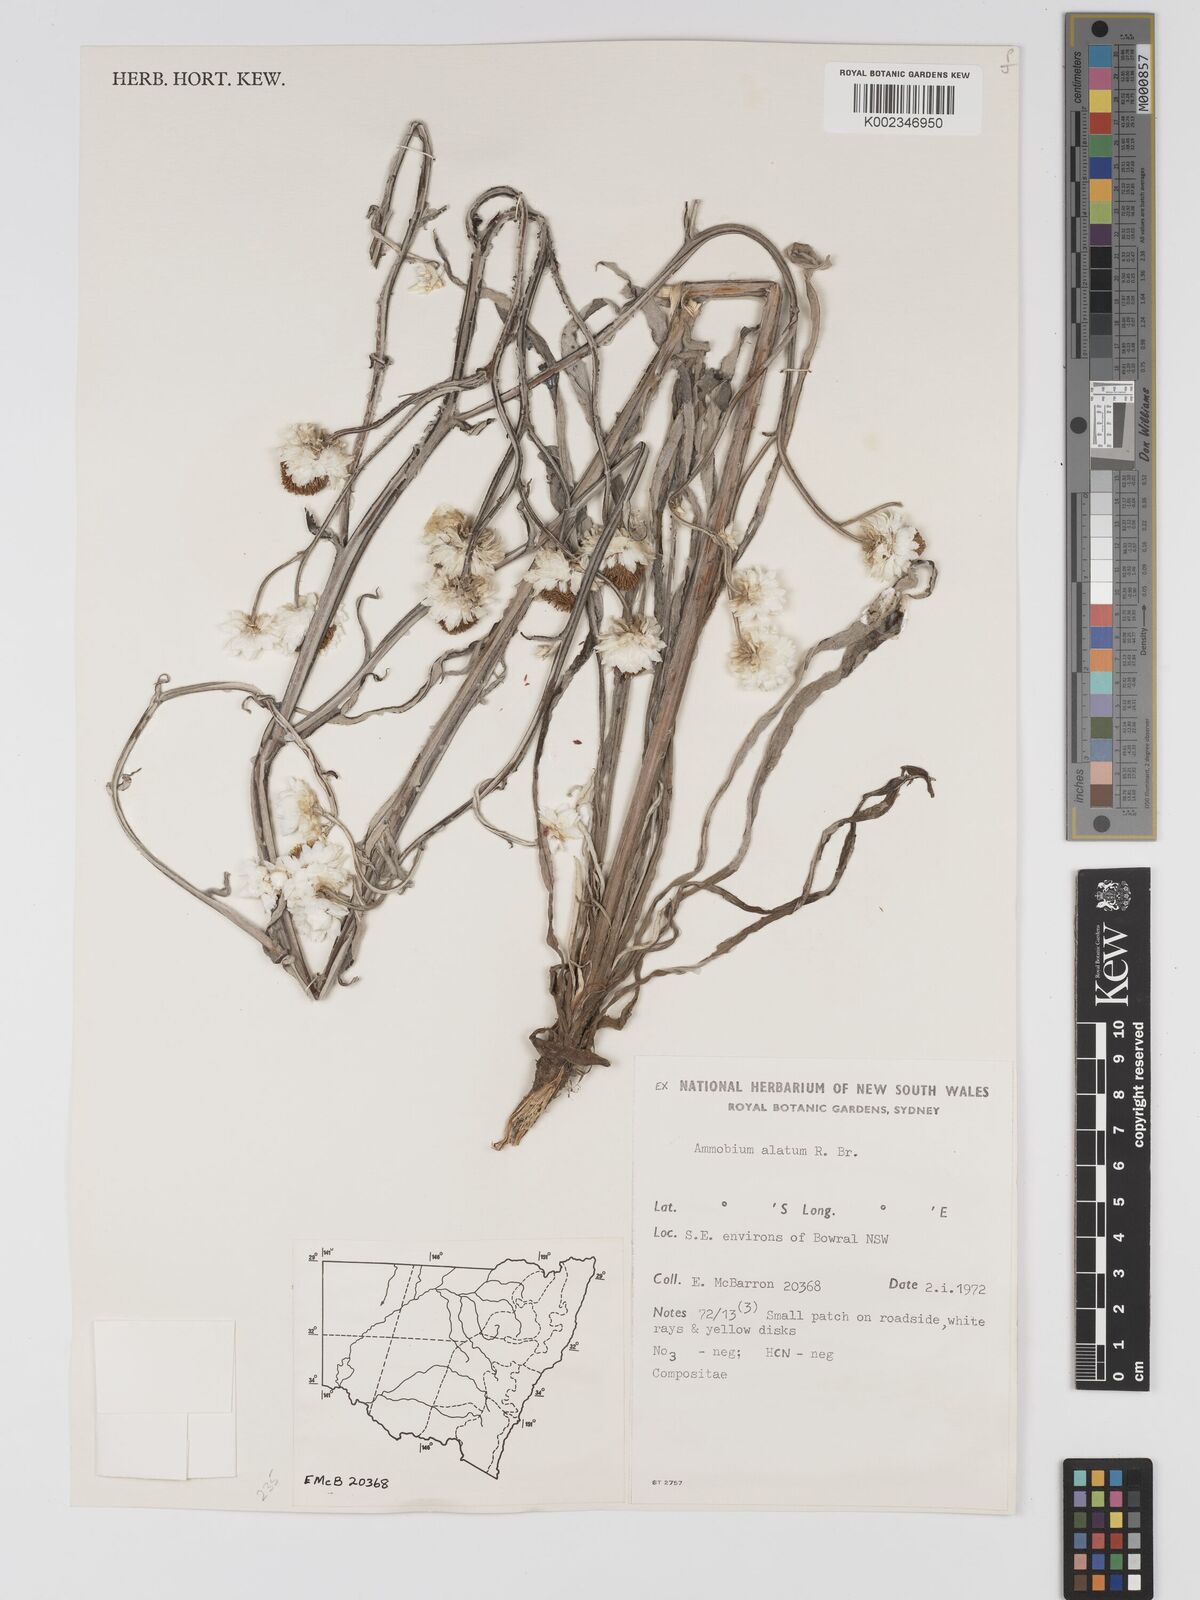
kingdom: Plantae
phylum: Tracheophyta
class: Magnoliopsida
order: Asterales
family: Asteraceae
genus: Ammobium
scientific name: Ammobium alatum
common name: Winged everlasting
